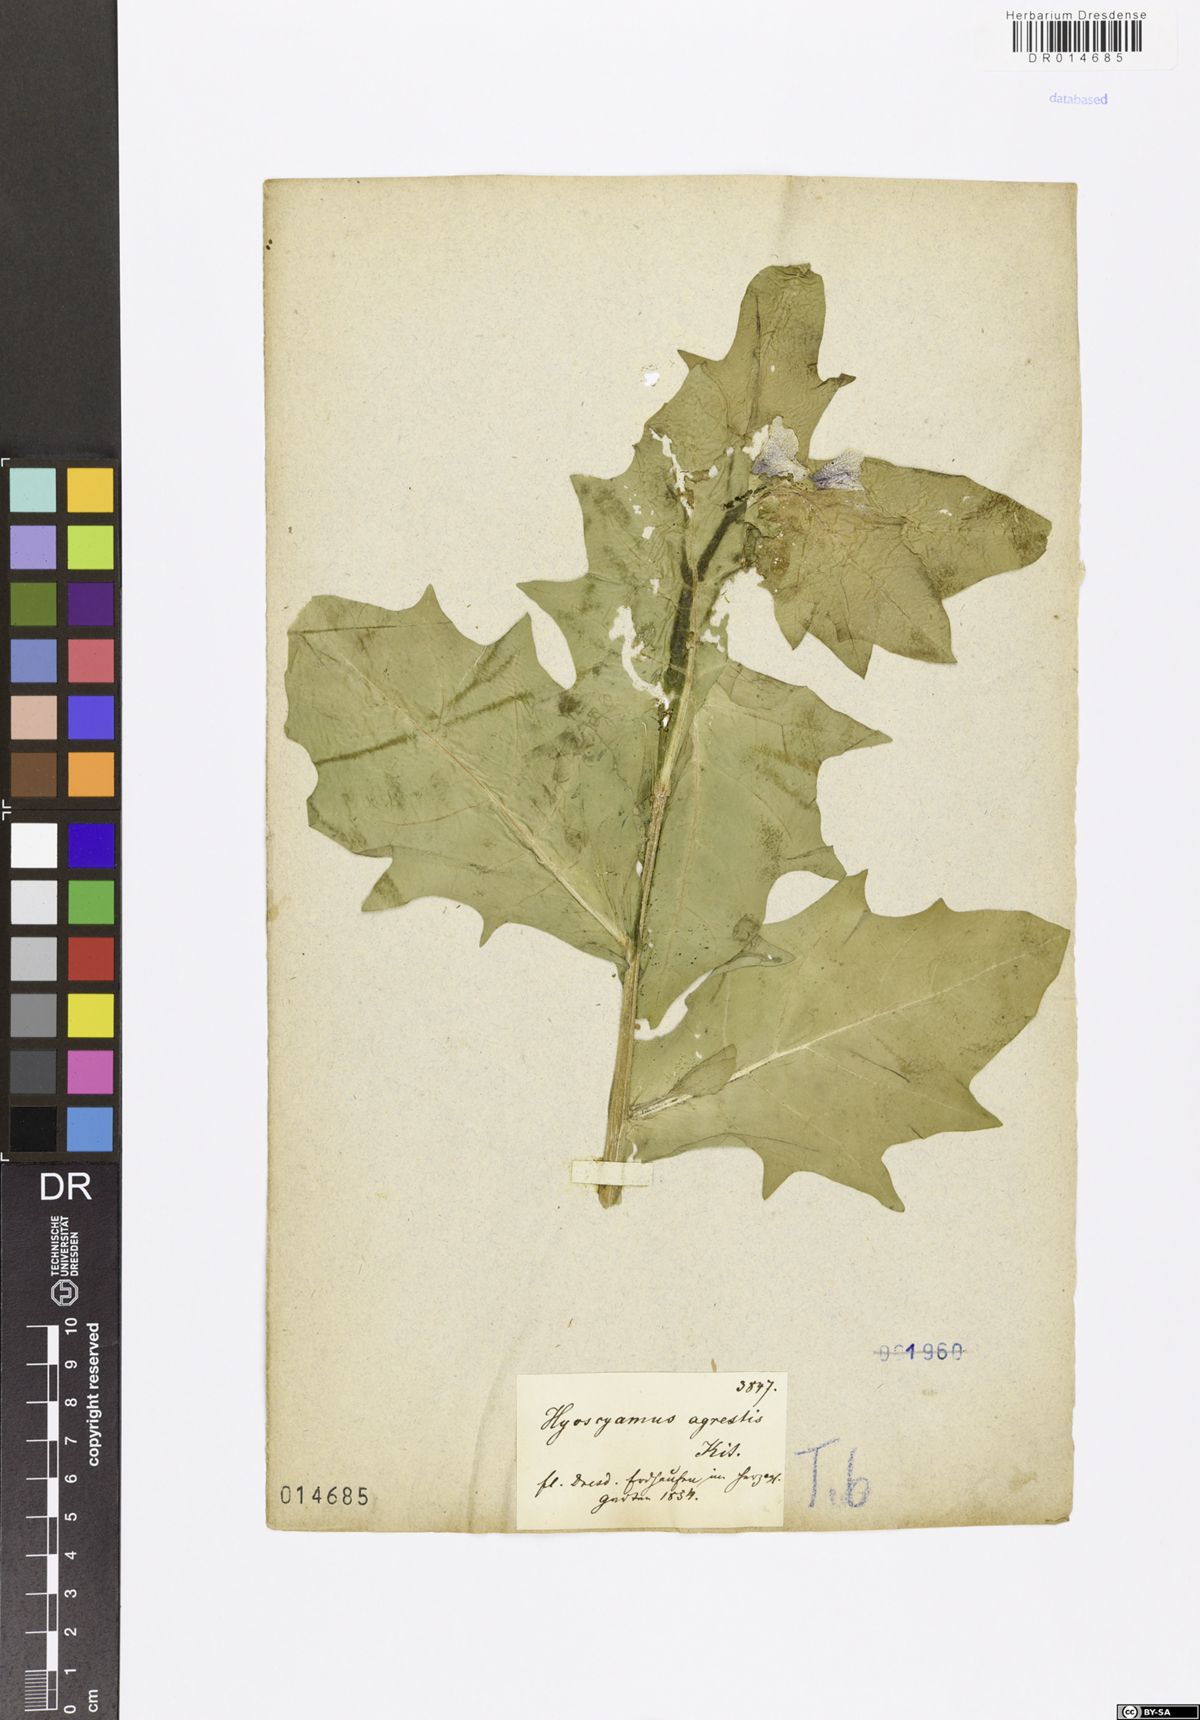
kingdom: Plantae
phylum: Tracheophyta
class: Magnoliopsida
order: Solanales
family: Solanaceae
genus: Hyoscyamus
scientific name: Hyoscyamus niger
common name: Henbane
